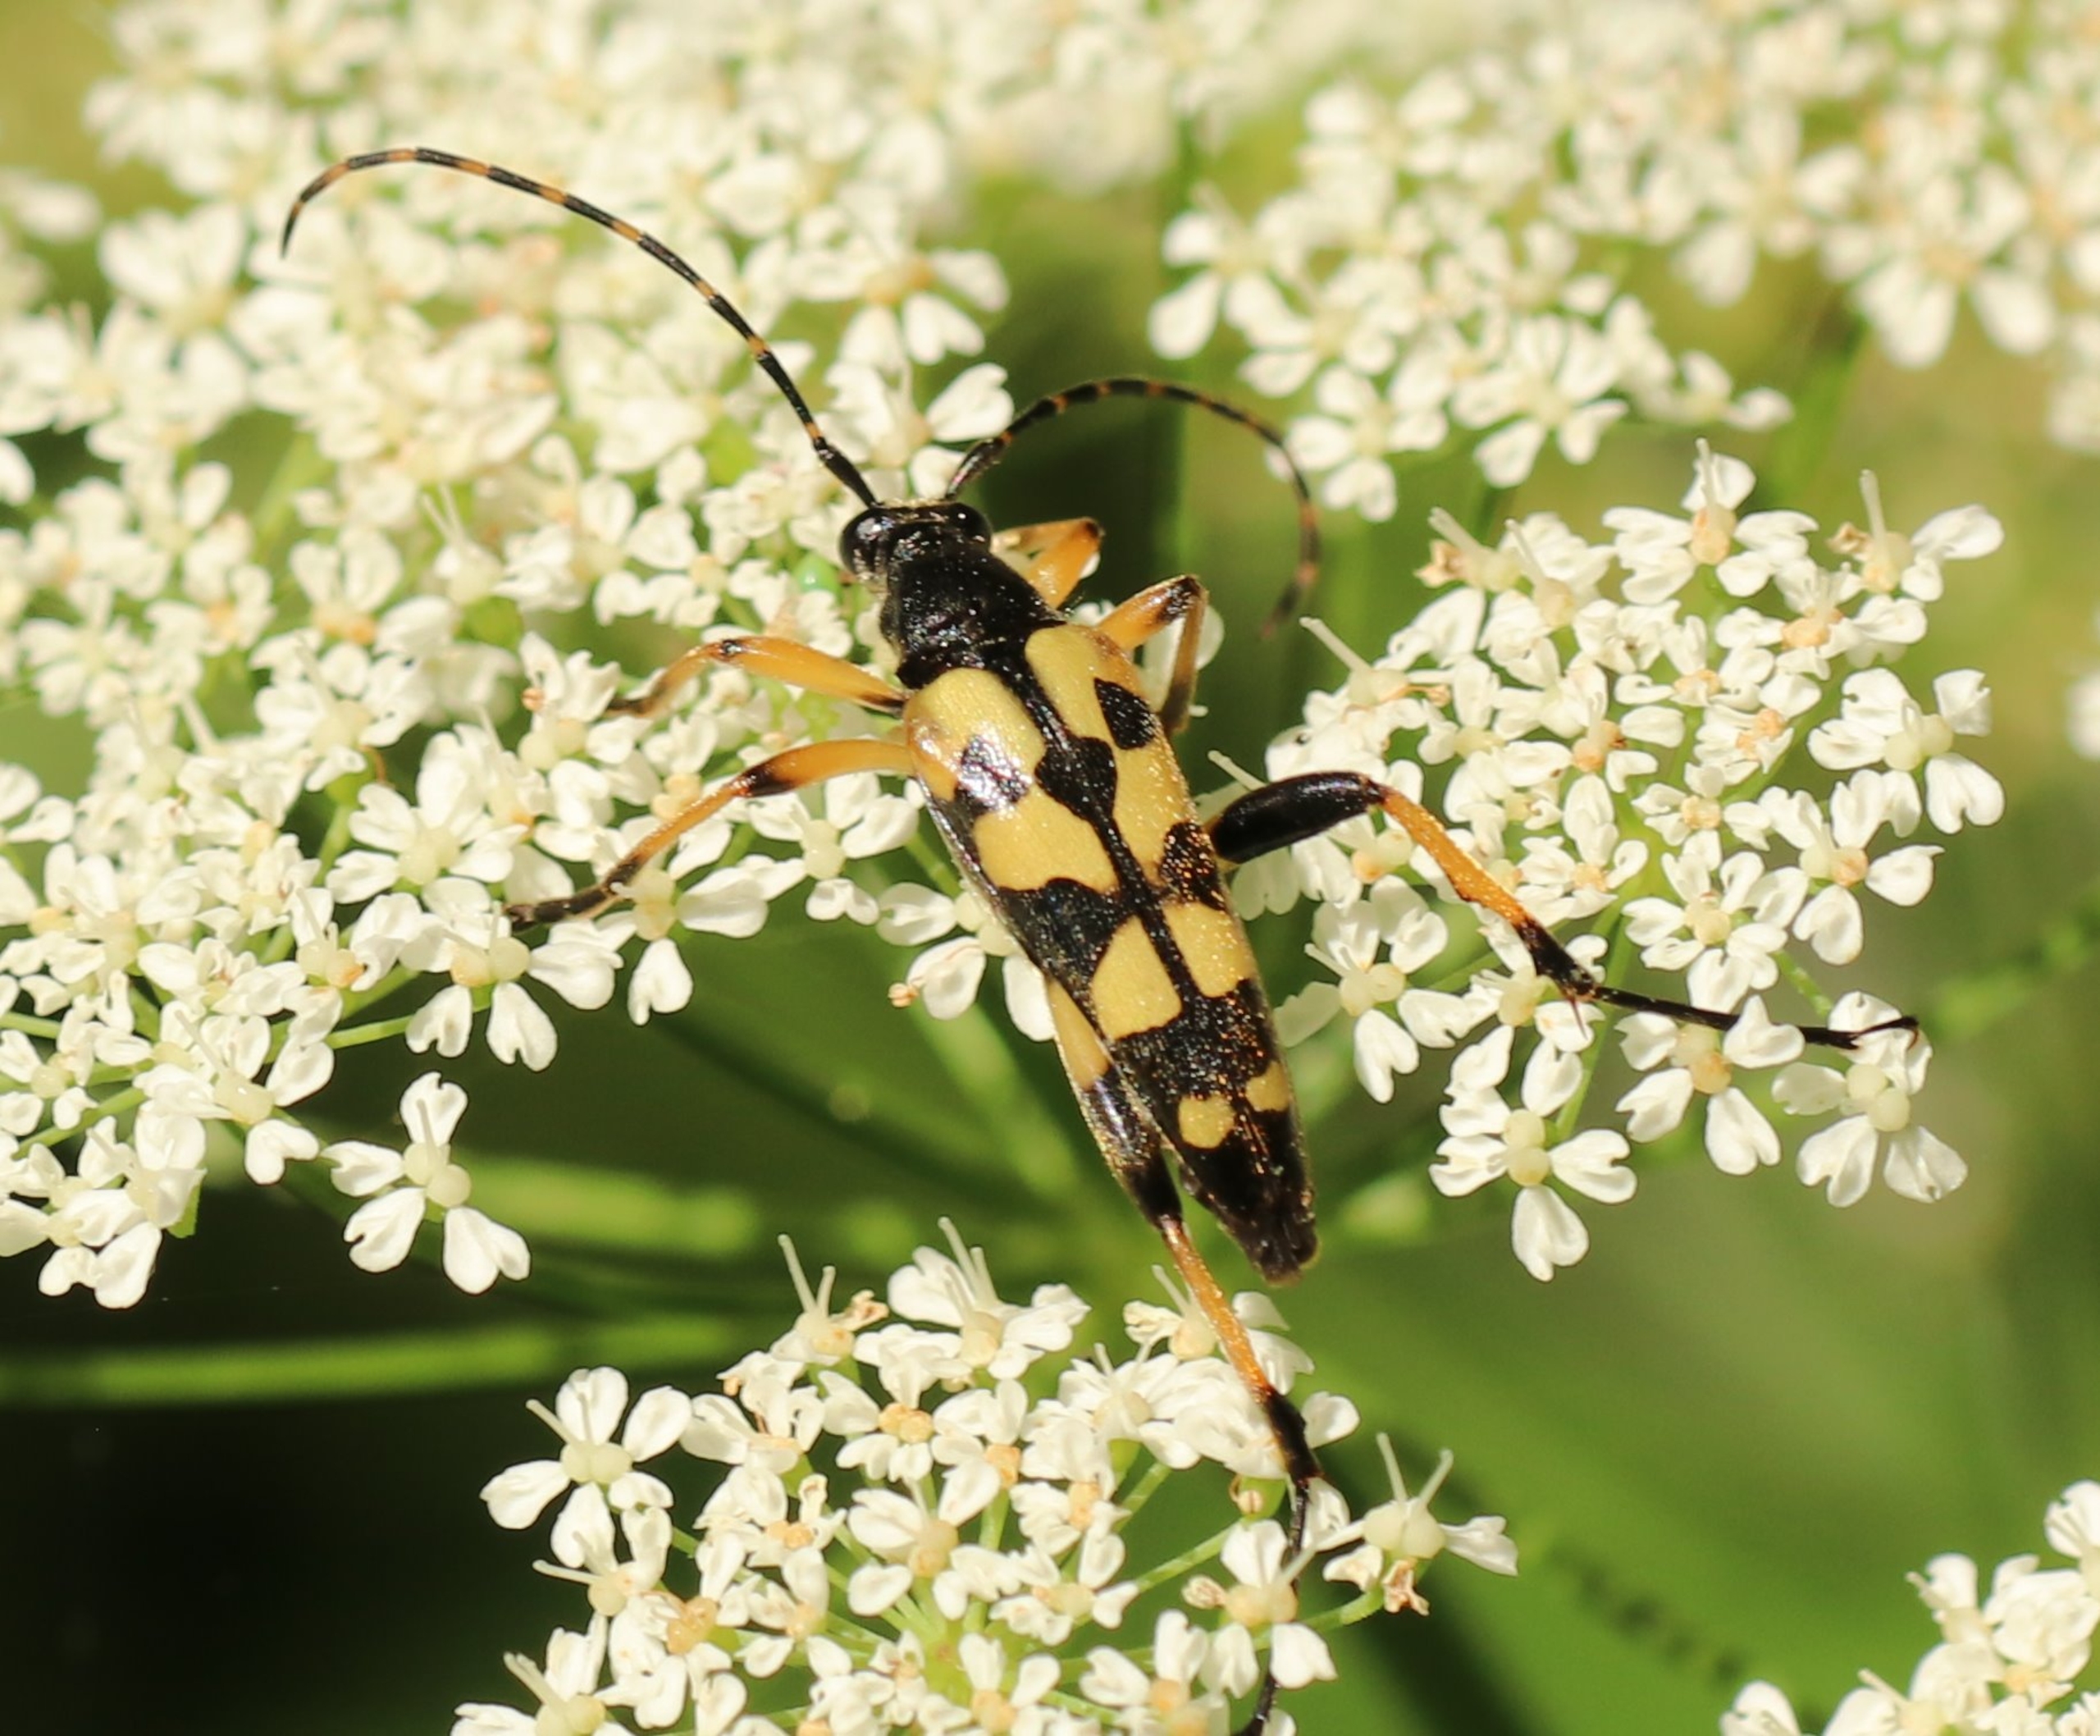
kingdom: Animalia
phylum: Arthropoda
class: Insecta
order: Coleoptera
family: Cerambycidae
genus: Rutpela
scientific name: Rutpela maculata
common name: Sydlig blomsterbuk
